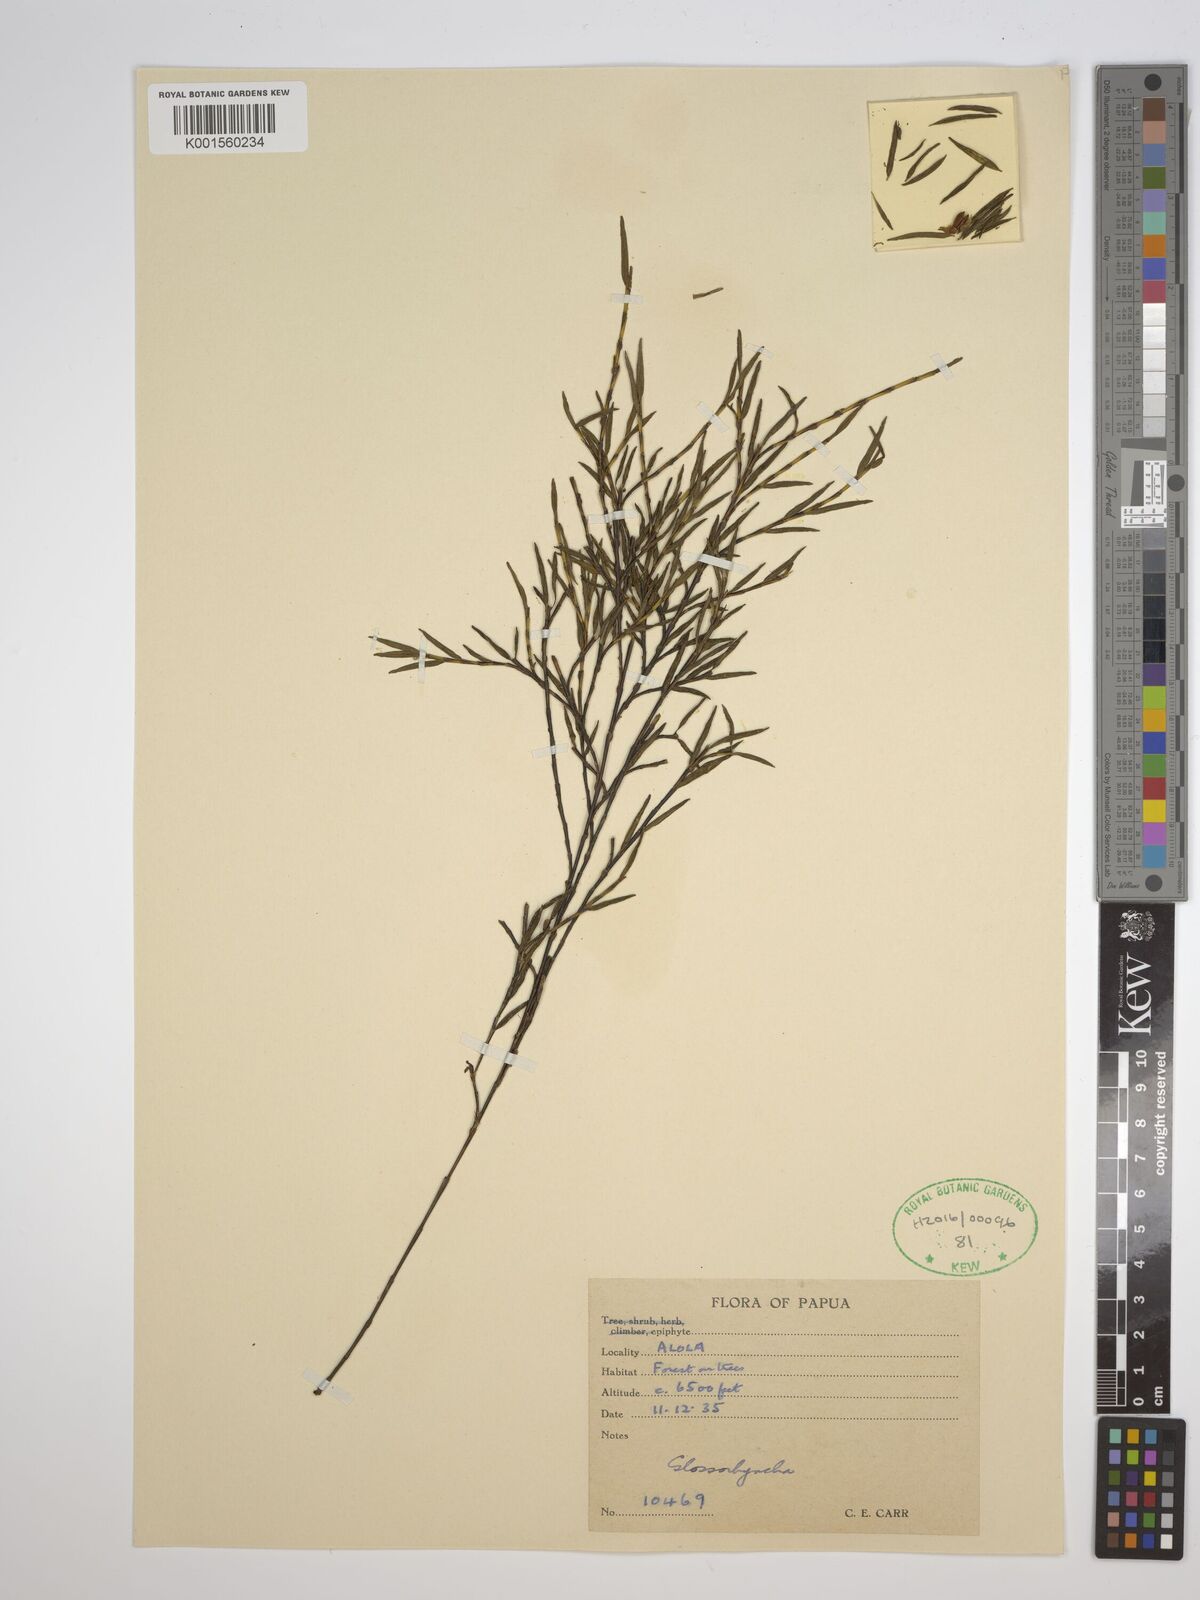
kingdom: Plantae
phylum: Tracheophyta
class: Liliopsida
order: Asparagales
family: Orchidaceae
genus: Glomera
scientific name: Glomera
